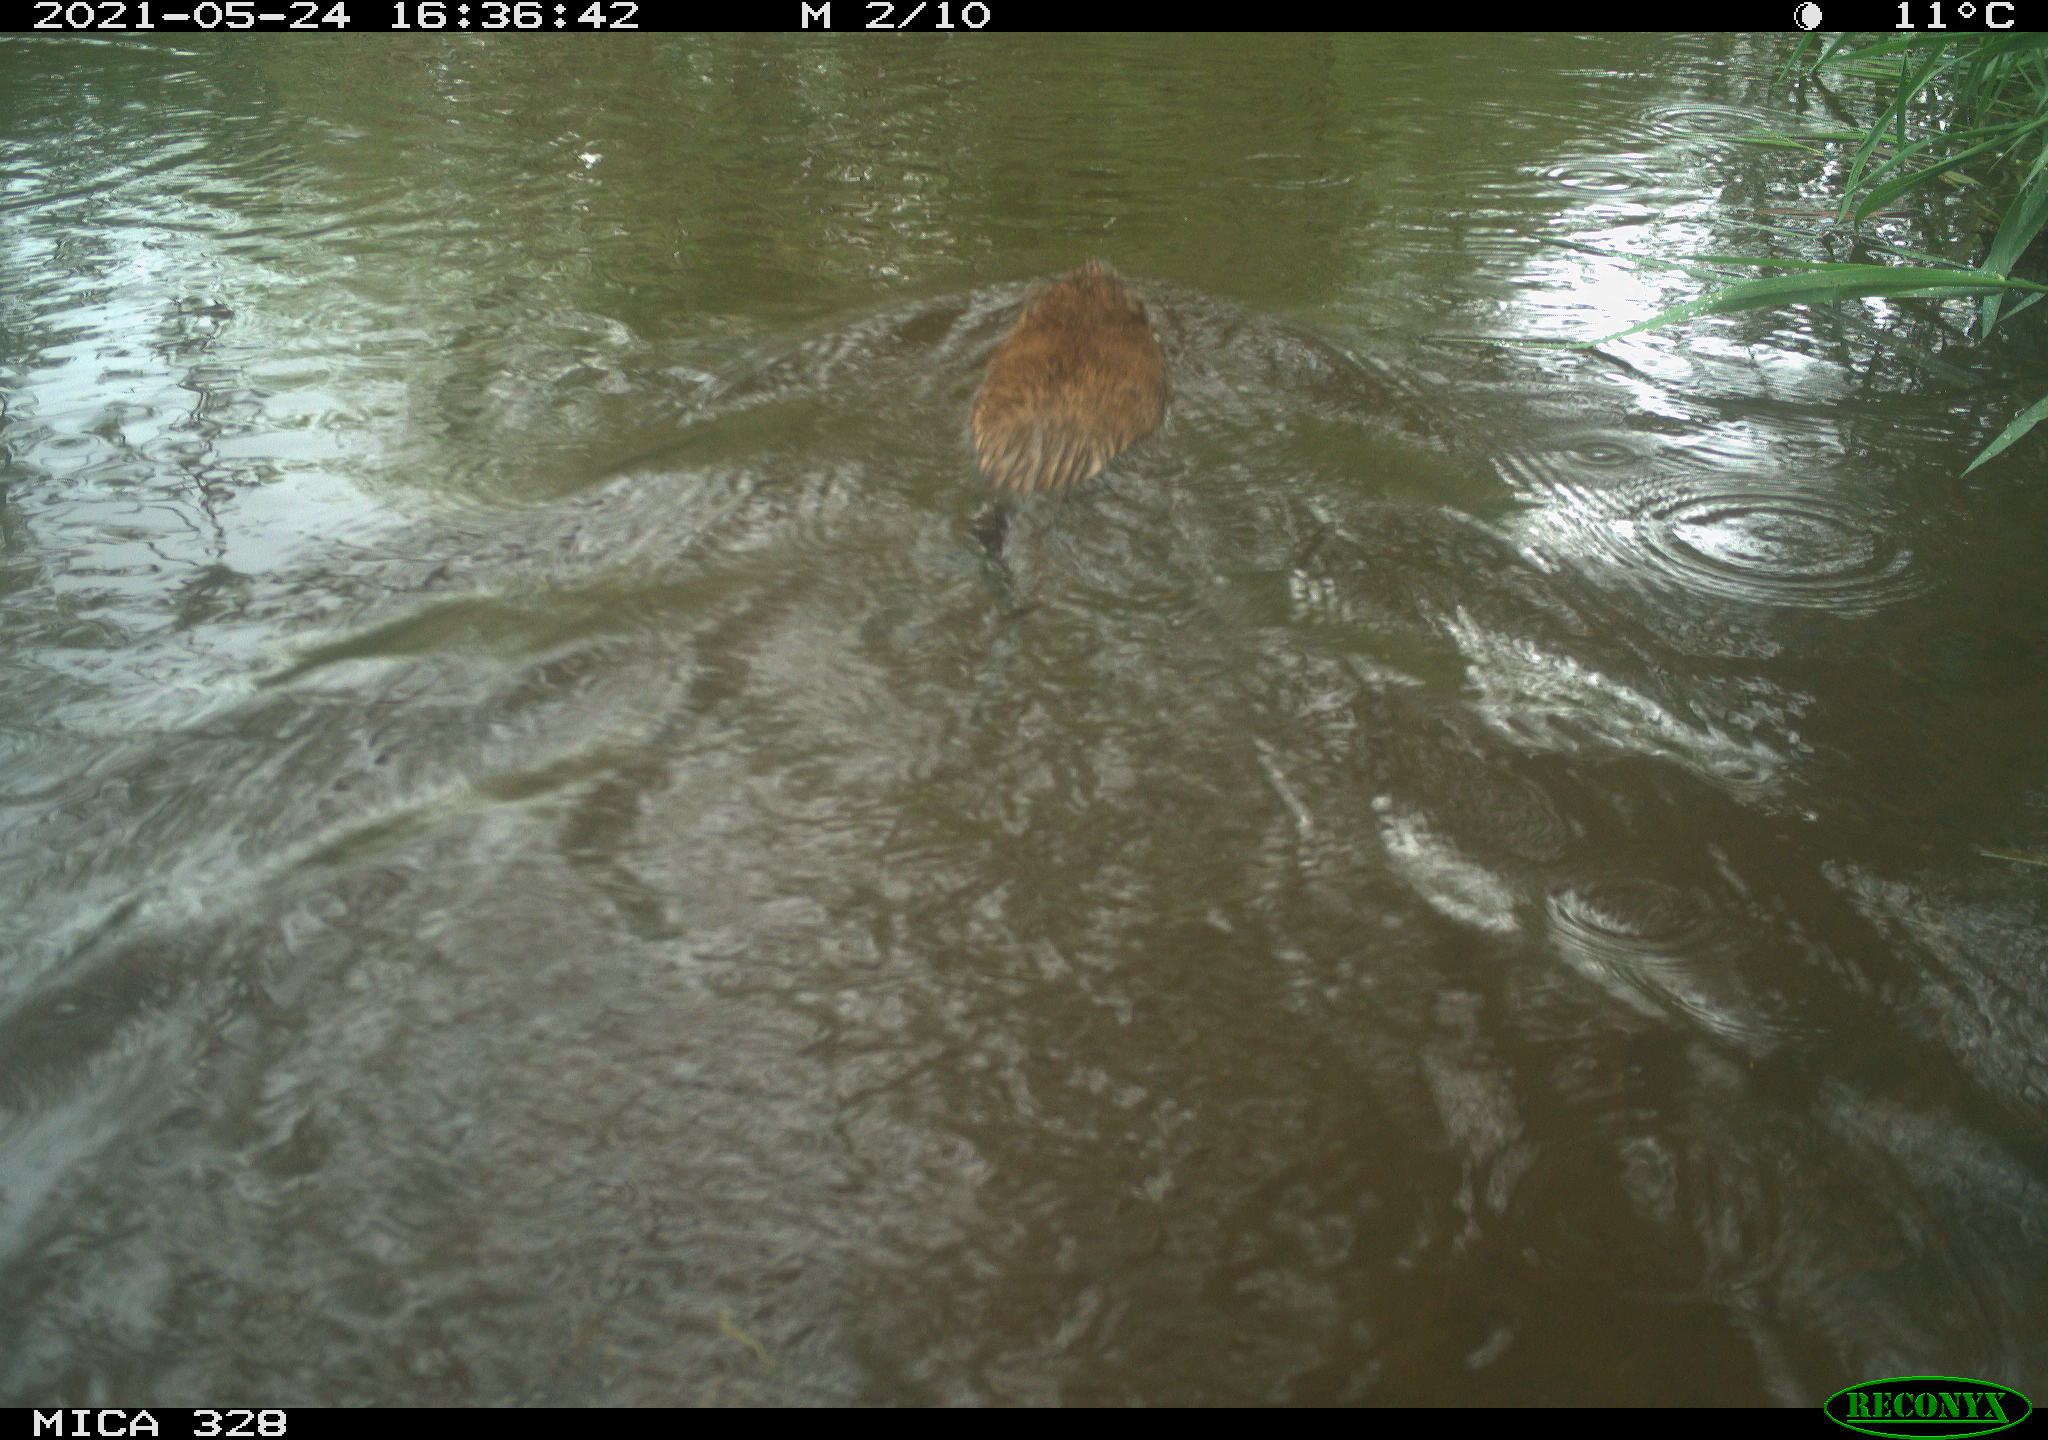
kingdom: Animalia
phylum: Chordata
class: Mammalia
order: Rodentia
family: Cricetidae
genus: Ondatra
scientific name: Ondatra zibethicus
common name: Muskrat
